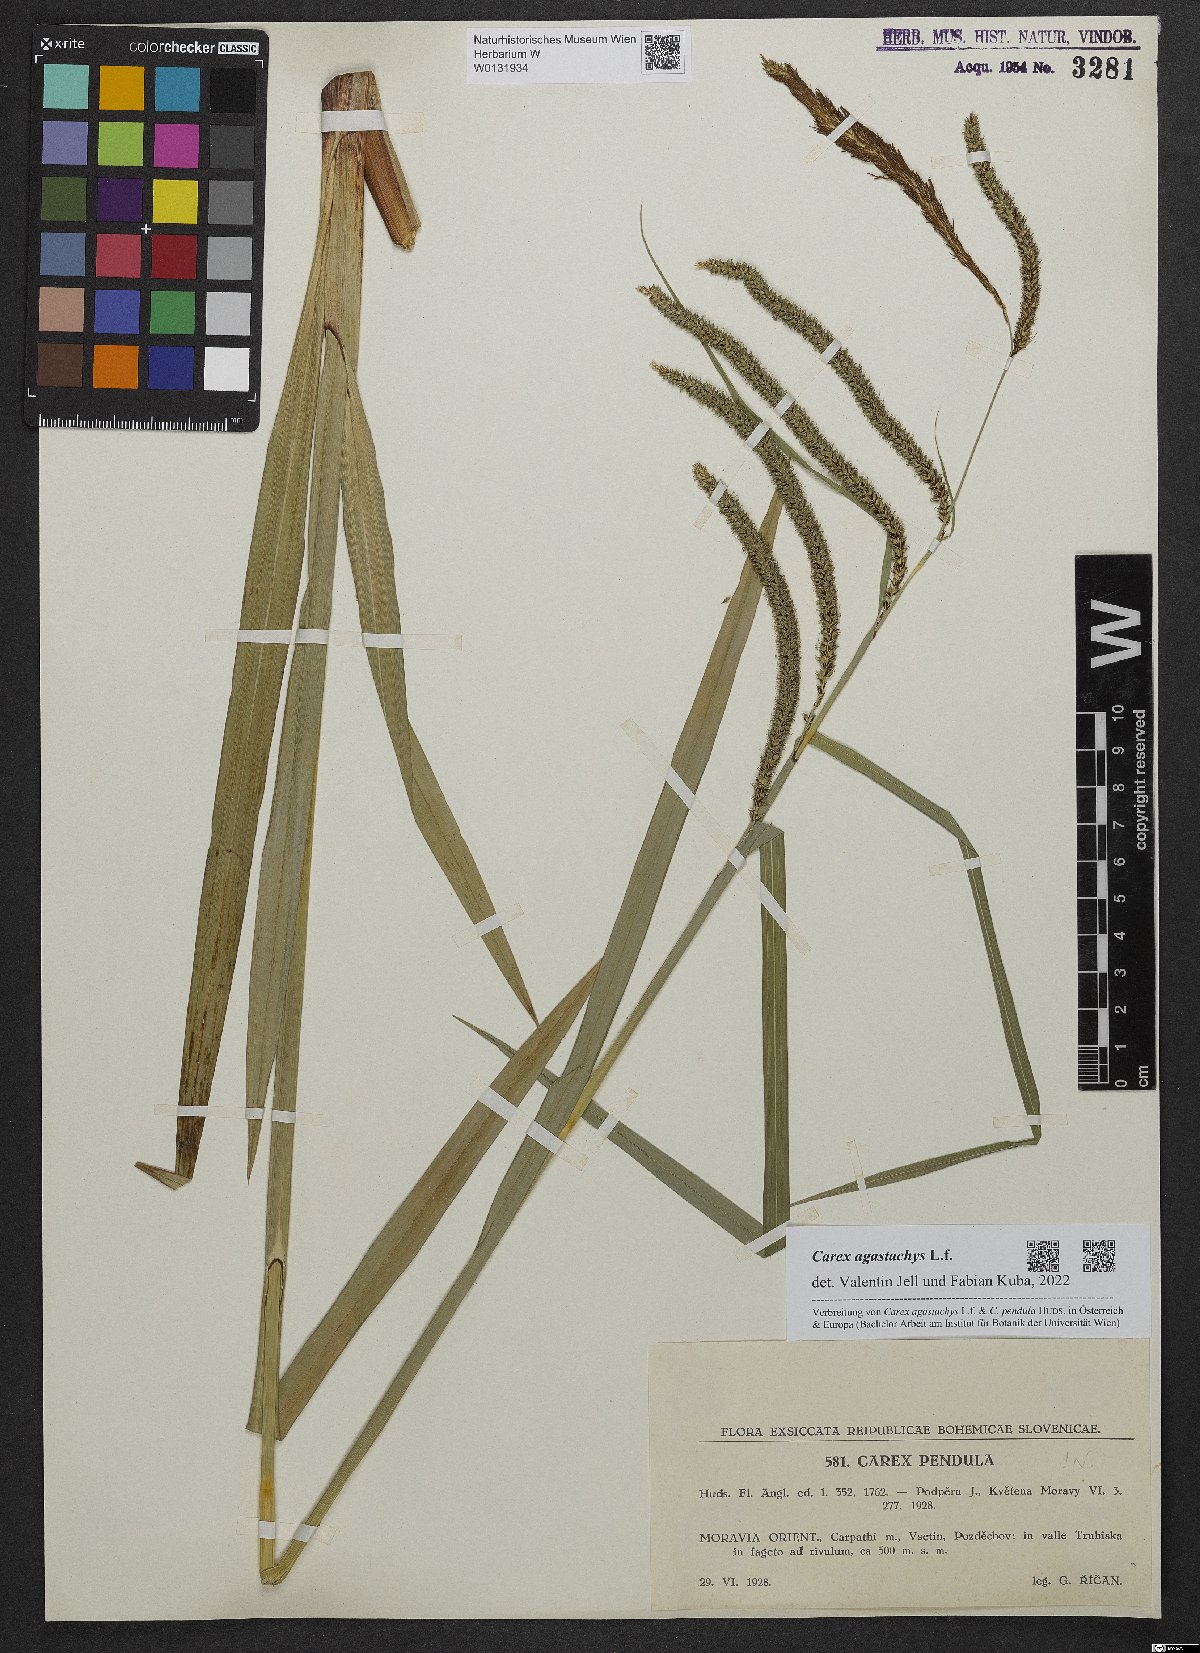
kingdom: Plantae
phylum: Tracheophyta
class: Liliopsida
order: Poales
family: Cyperaceae
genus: Carex
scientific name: Carex agastachys
